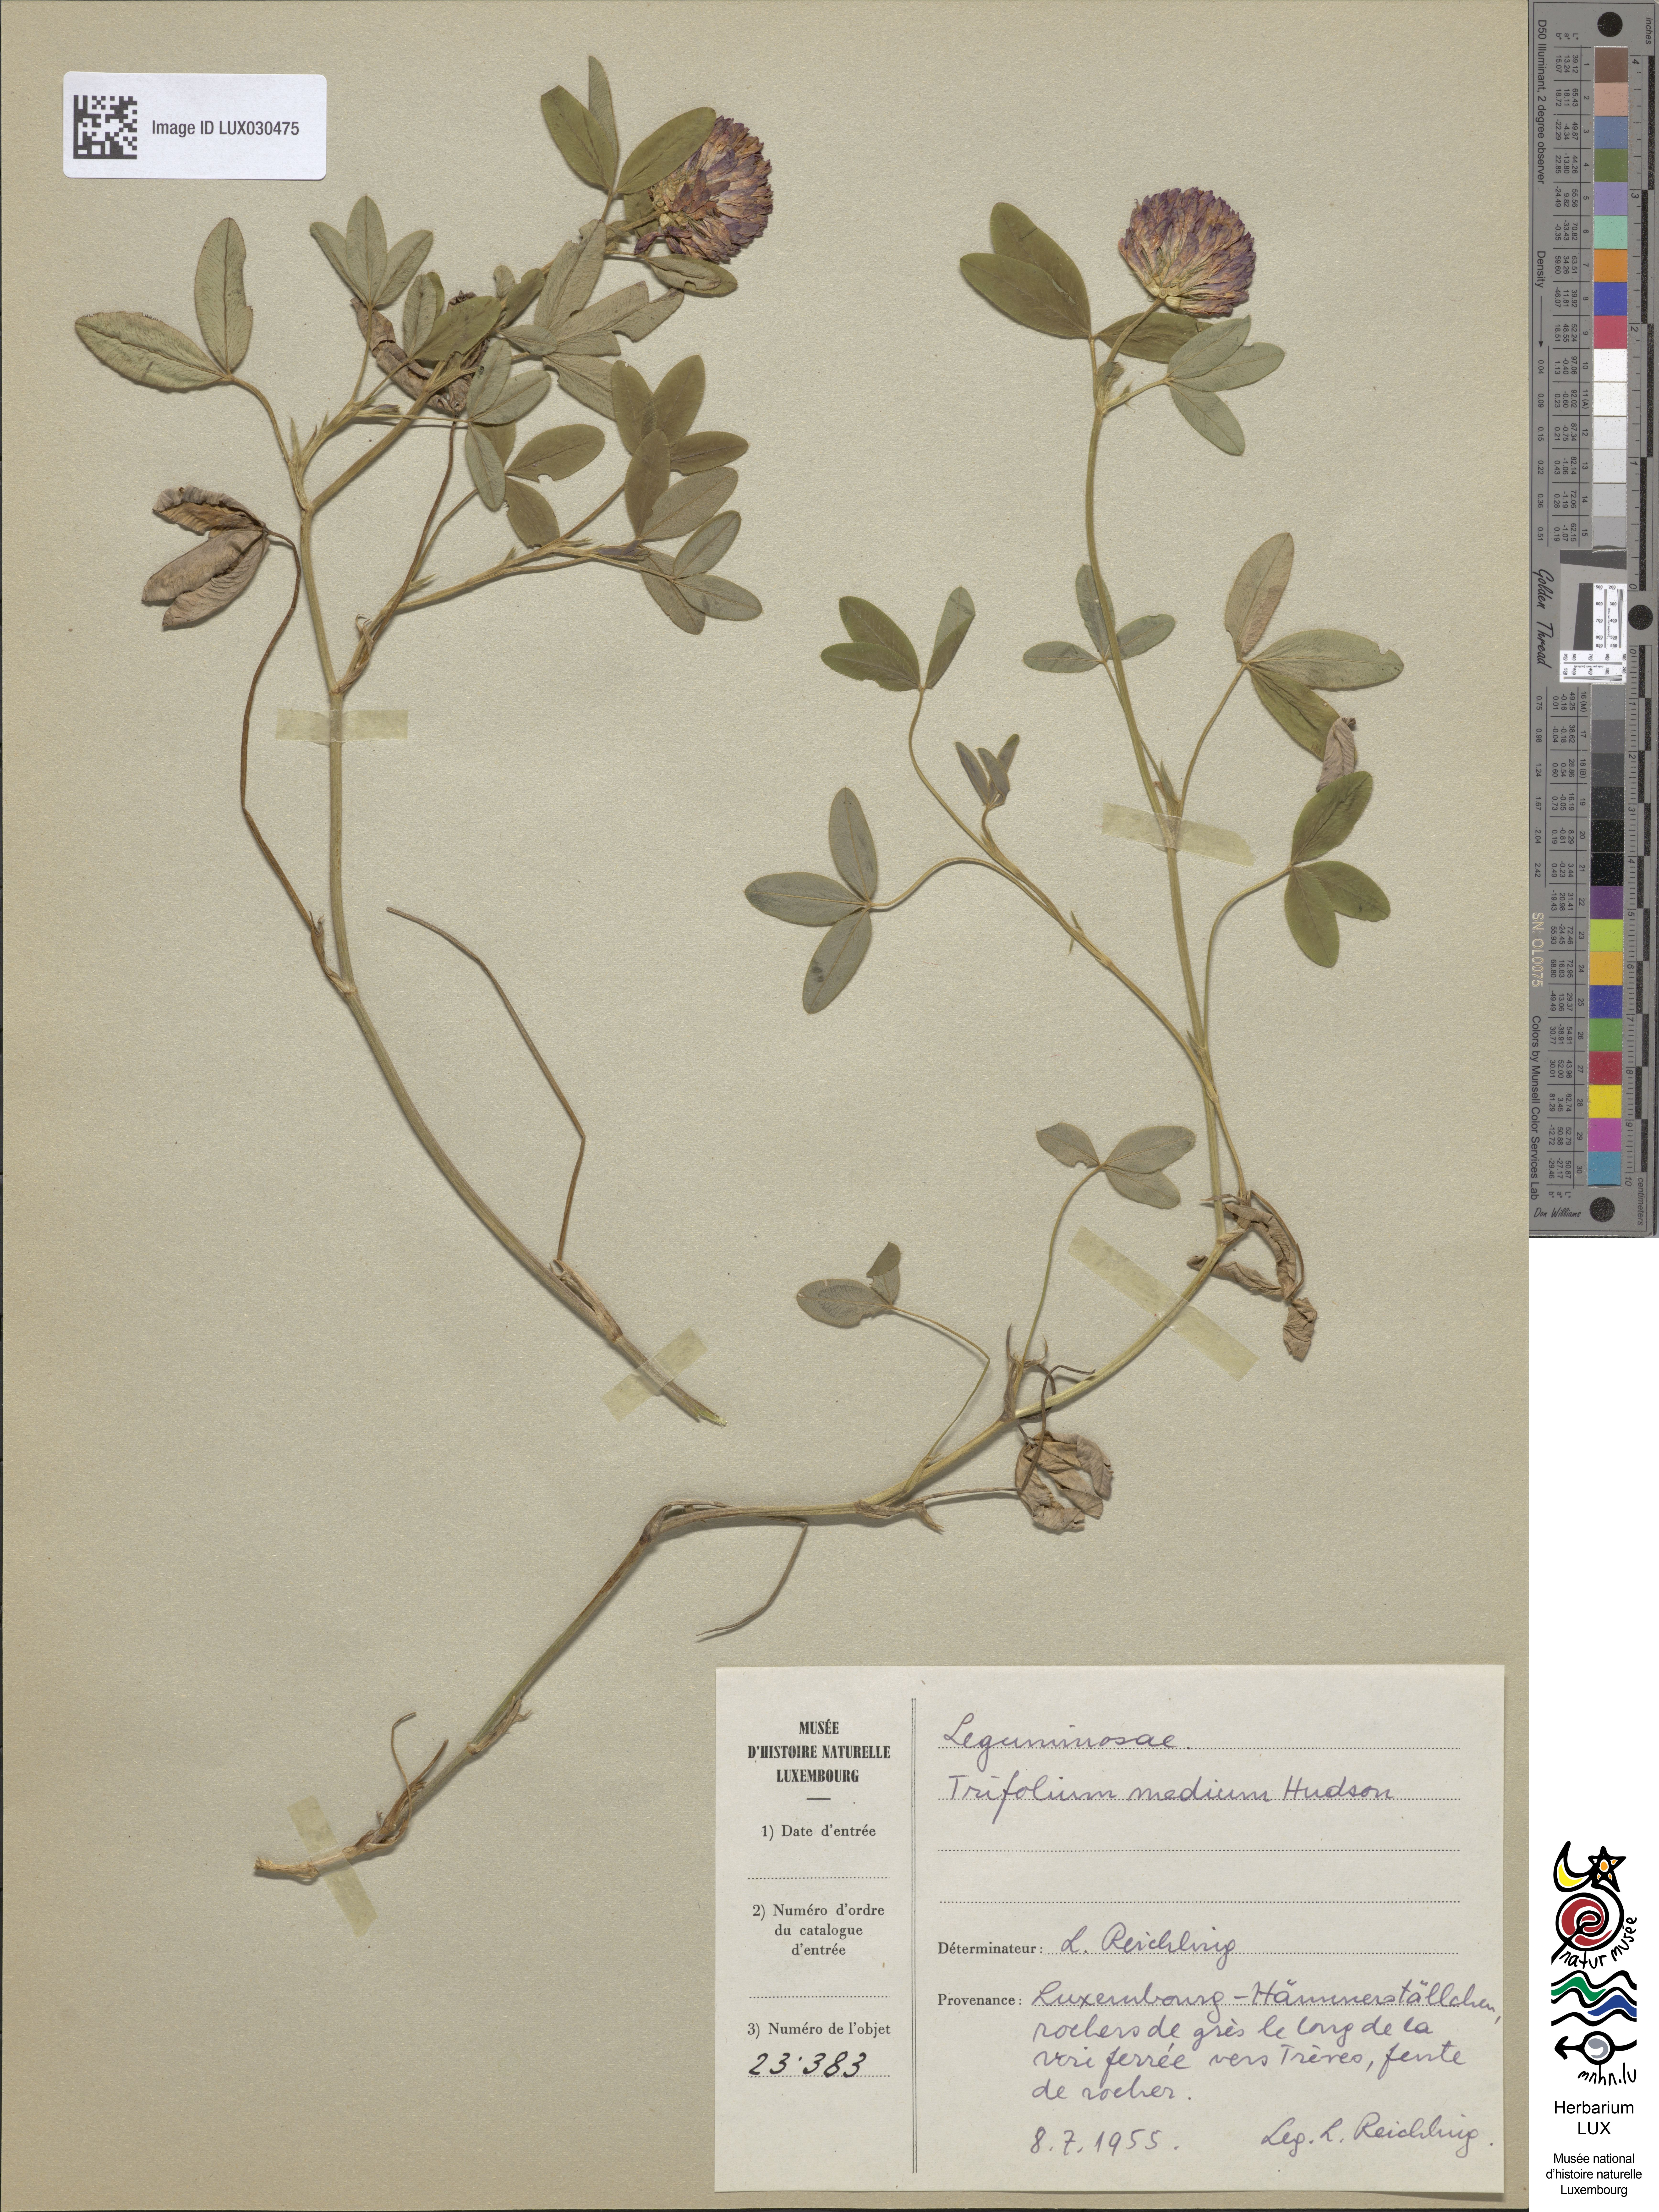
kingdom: Plantae
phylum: Tracheophyta
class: Magnoliopsida
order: Fabales
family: Fabaceae
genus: Trifolium
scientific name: Trifolium medium
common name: Zigzag clover
